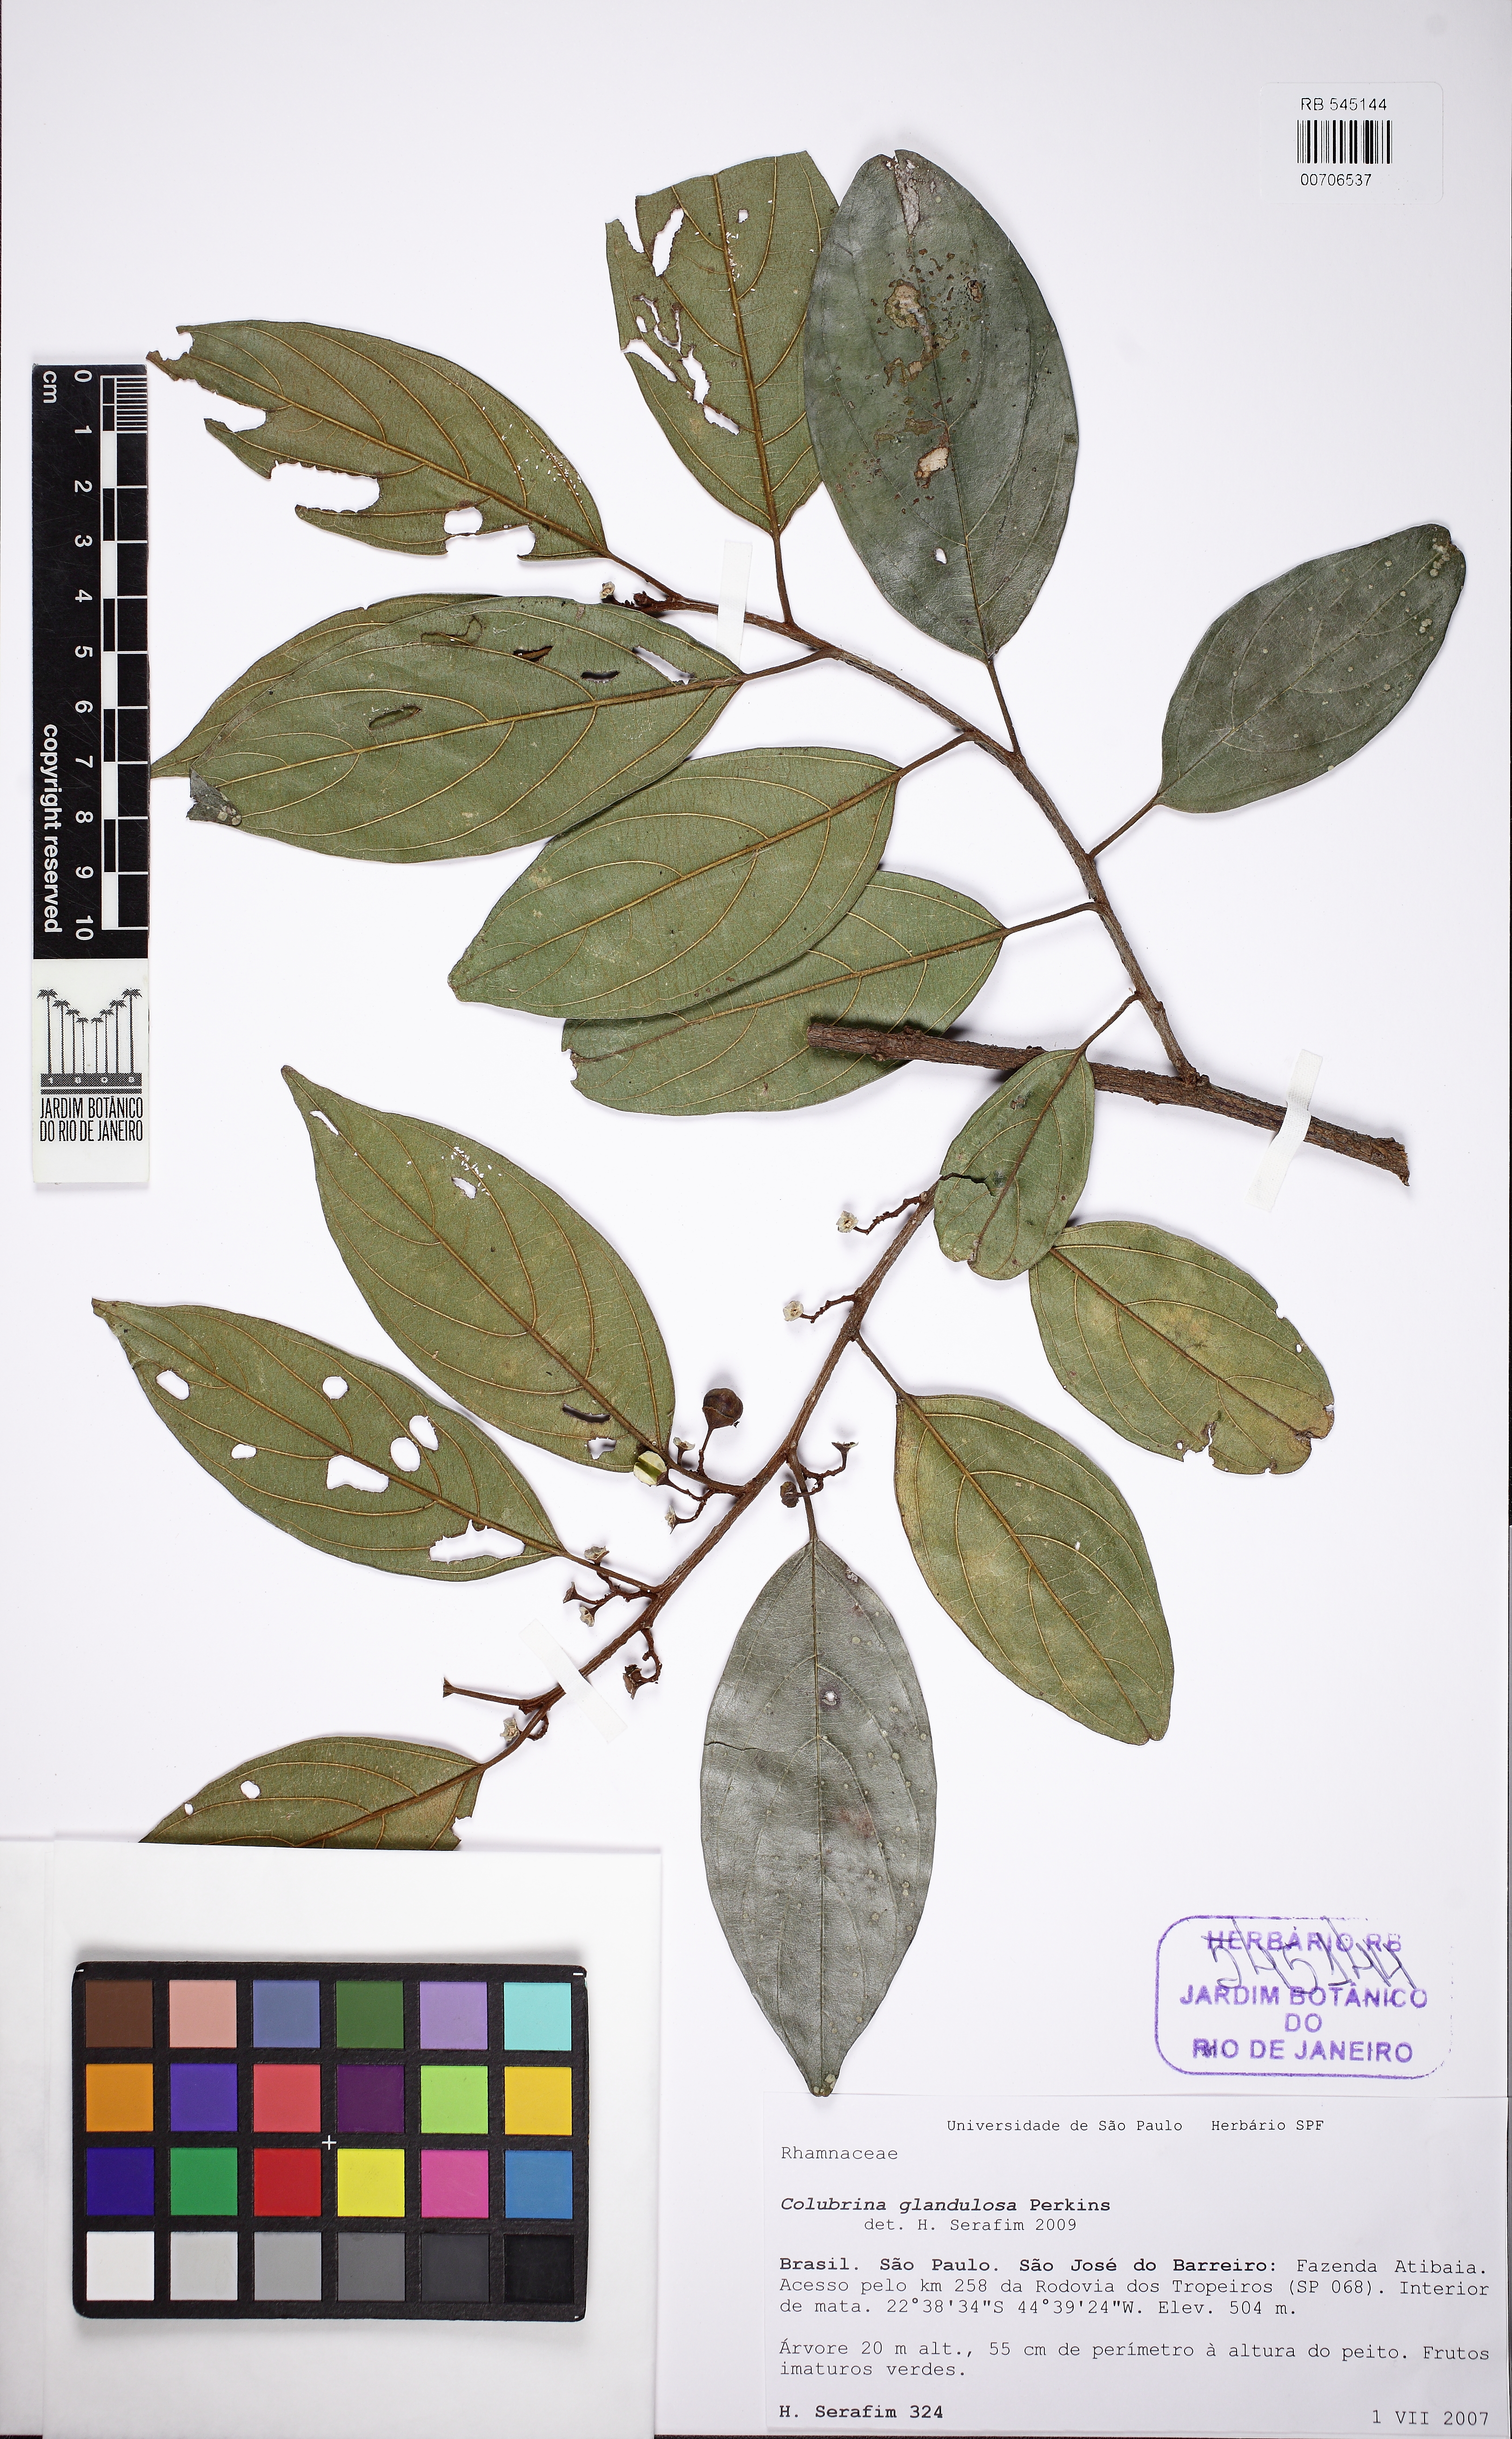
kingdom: Plantae
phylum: Tracheophyta
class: Magnoliopsida
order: Rosales
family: Rhamnaceae
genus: Colubrina
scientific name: Colubrina glandulosa
